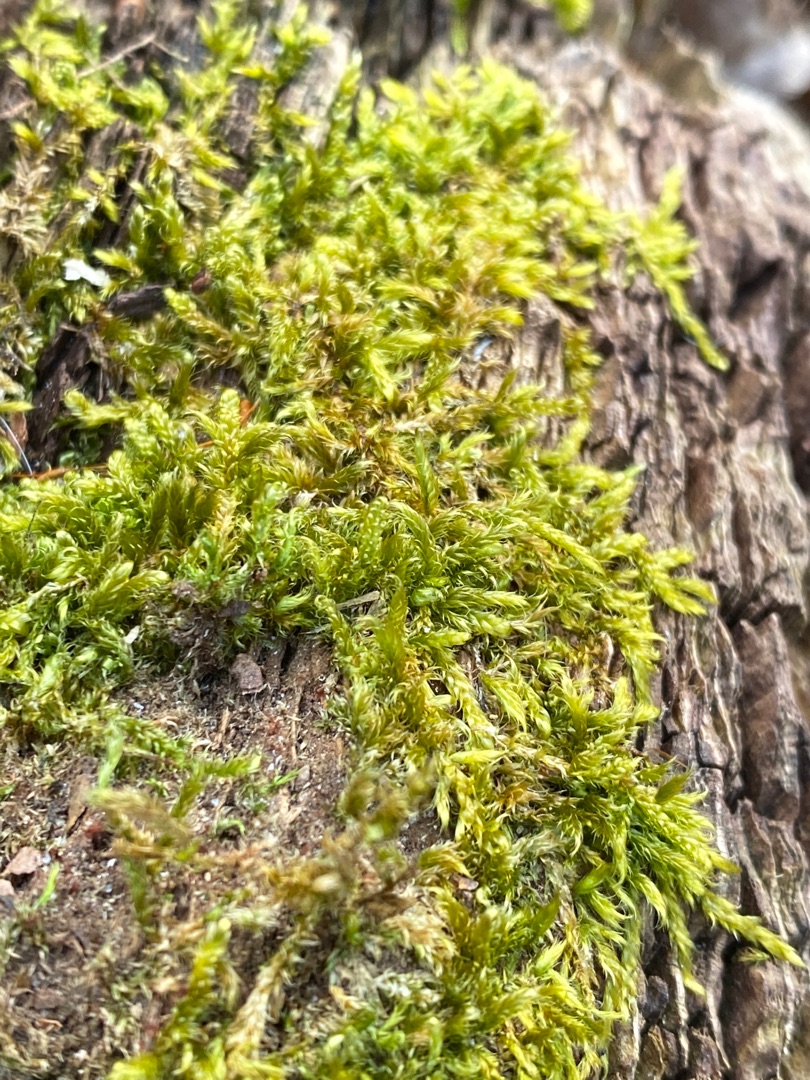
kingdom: Plantae
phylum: Bryophyta
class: Bryopsida
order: Hypnales
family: Hypnaceae
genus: Hypnum
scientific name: Hypnum cupressiforme
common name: Almindelig cypresmos
